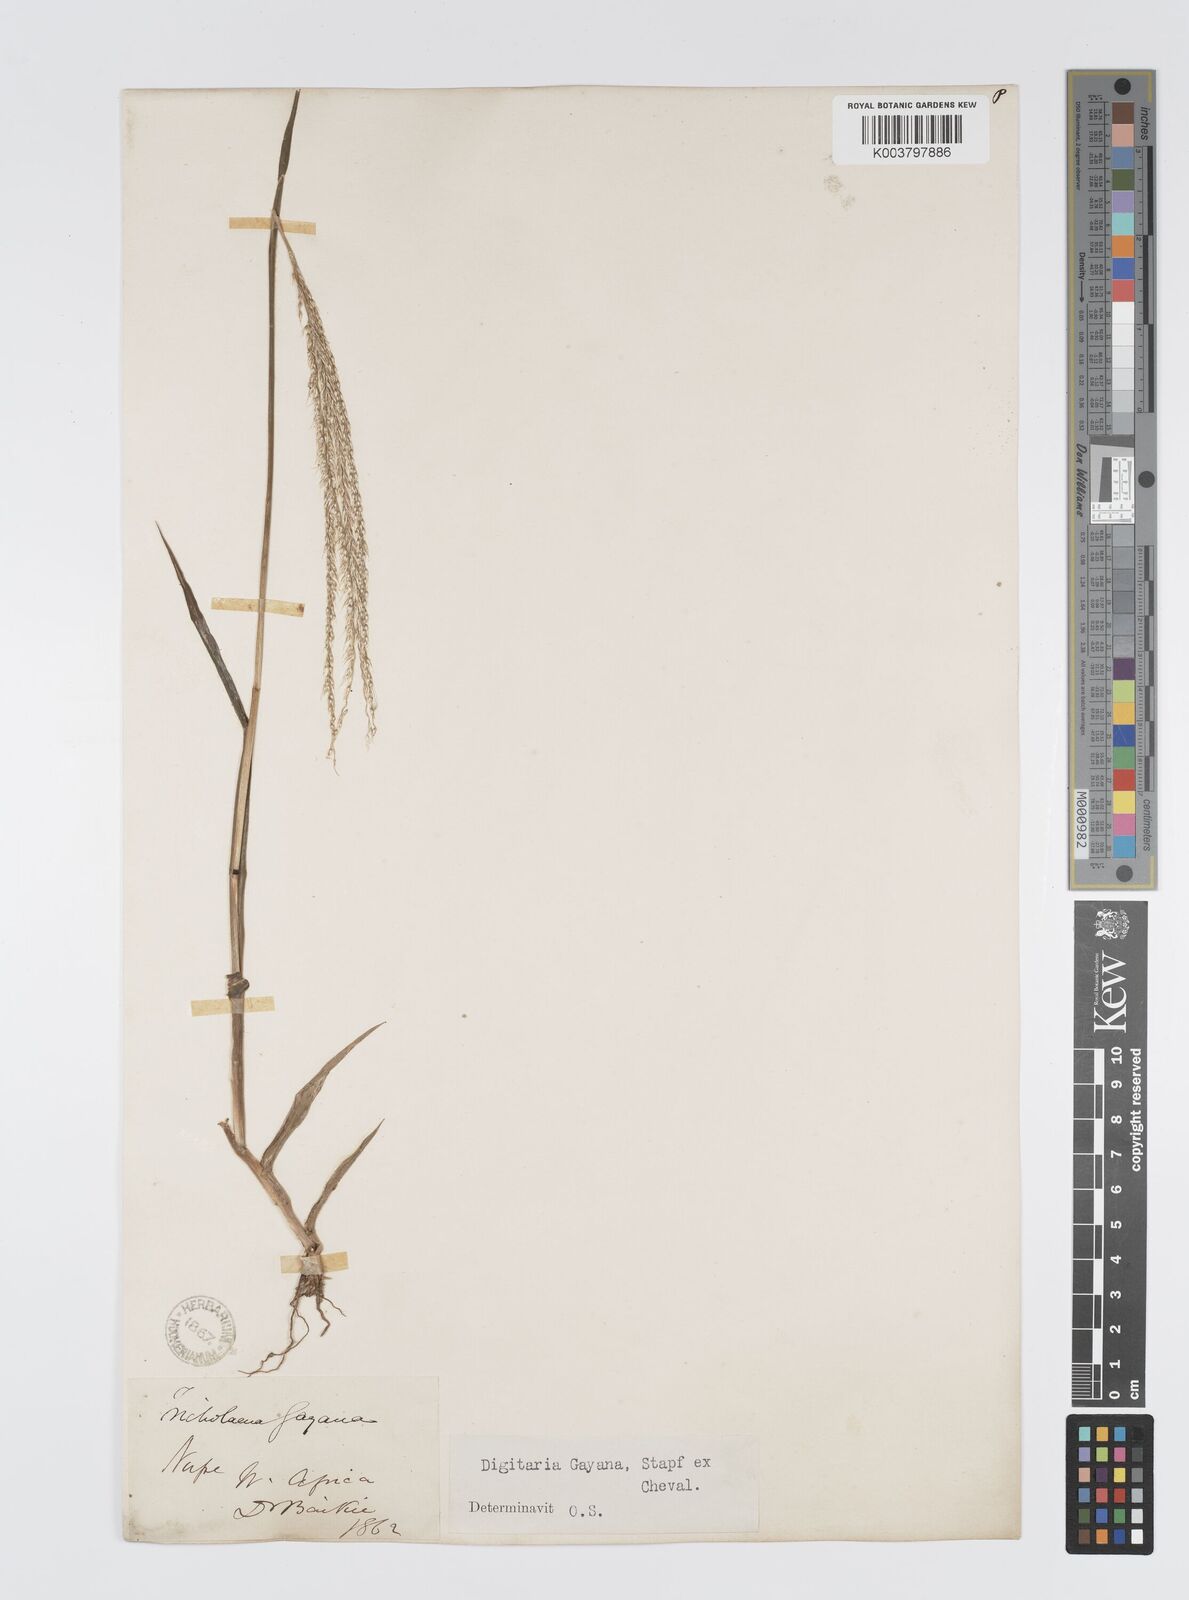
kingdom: Plantae
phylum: Tracheophyta
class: Liliopsida
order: Poales
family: Poaceae
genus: Digitaria
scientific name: Digitaria gayana
